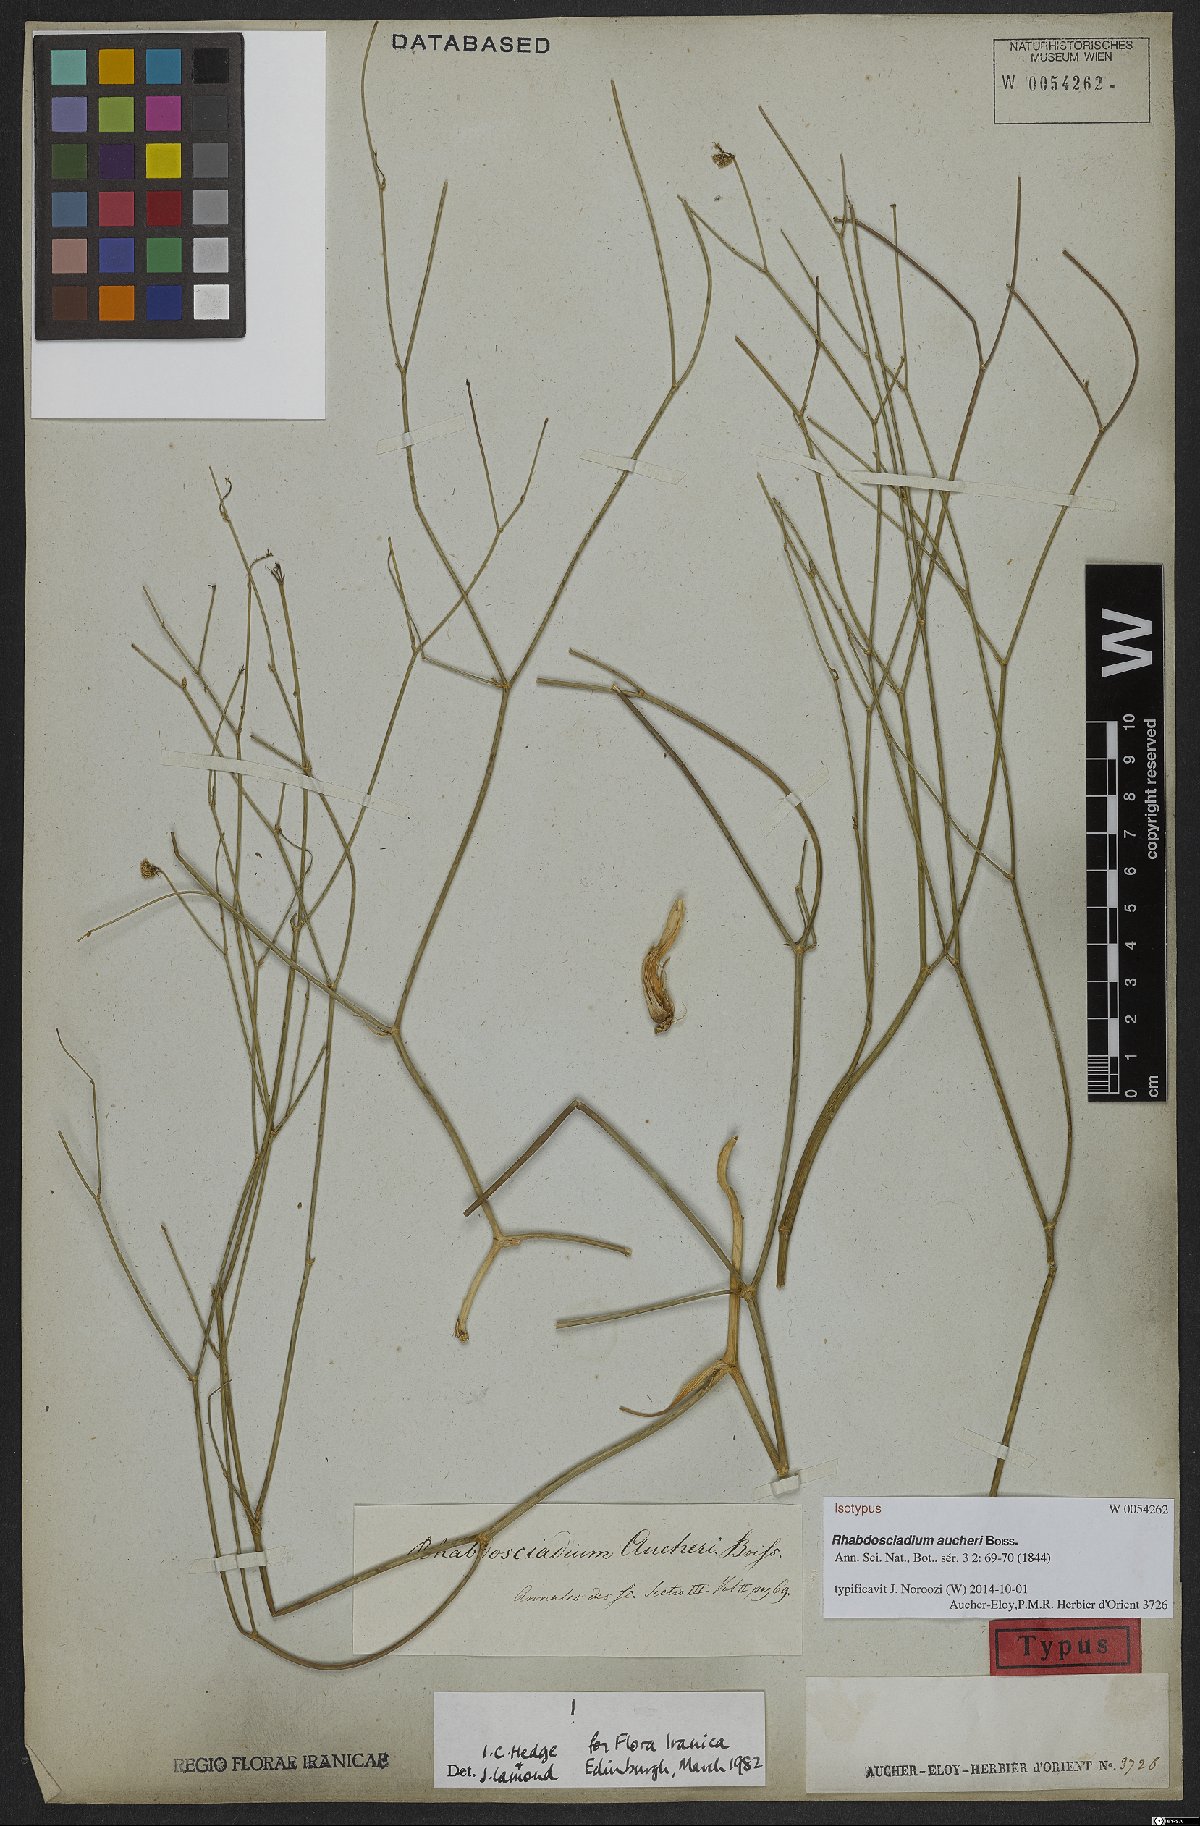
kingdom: Plantae
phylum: Tracheophyta
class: Magnoliopsida
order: Apiales
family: Apiaceae
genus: Rhabdosciadium
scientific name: Rhabdosciadium aucheri
